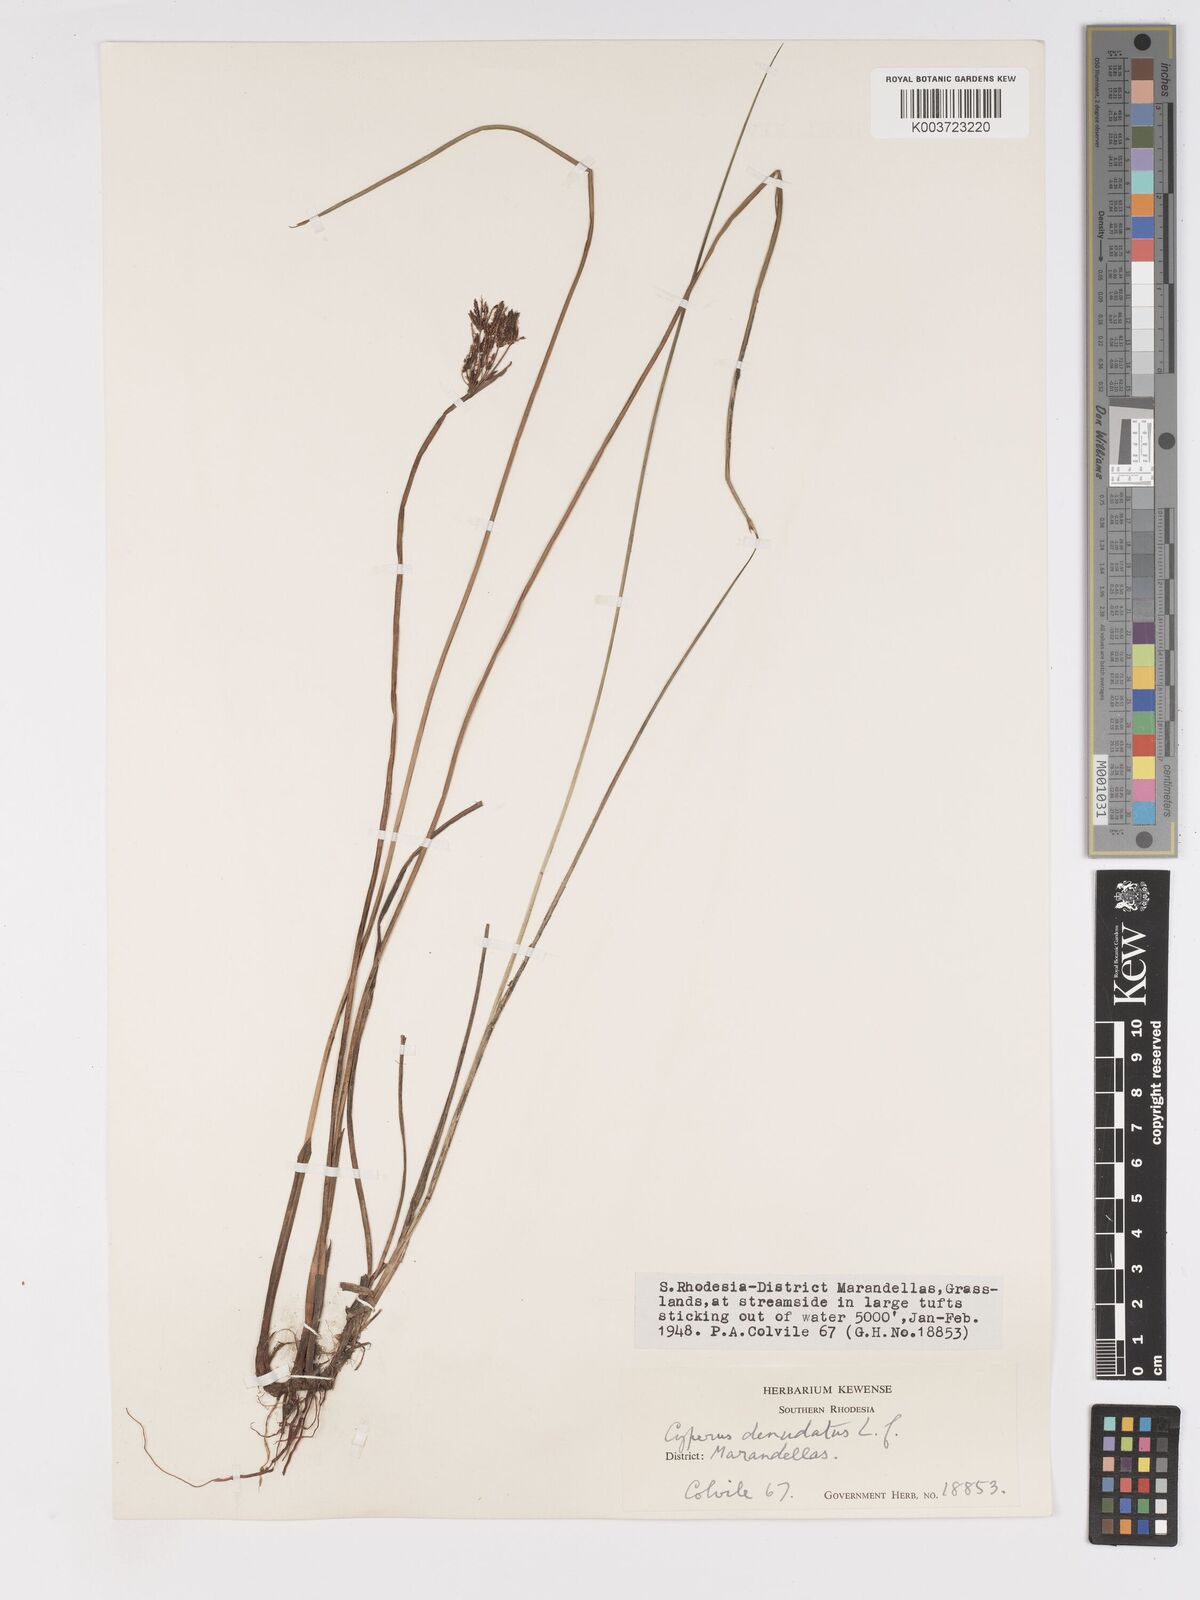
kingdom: Plantae
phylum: Tracheophyta
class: Liliopsida
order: Poales
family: Cyperaceae
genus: Cyperus
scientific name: Cyperus haspan
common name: Haspan flatsedge
